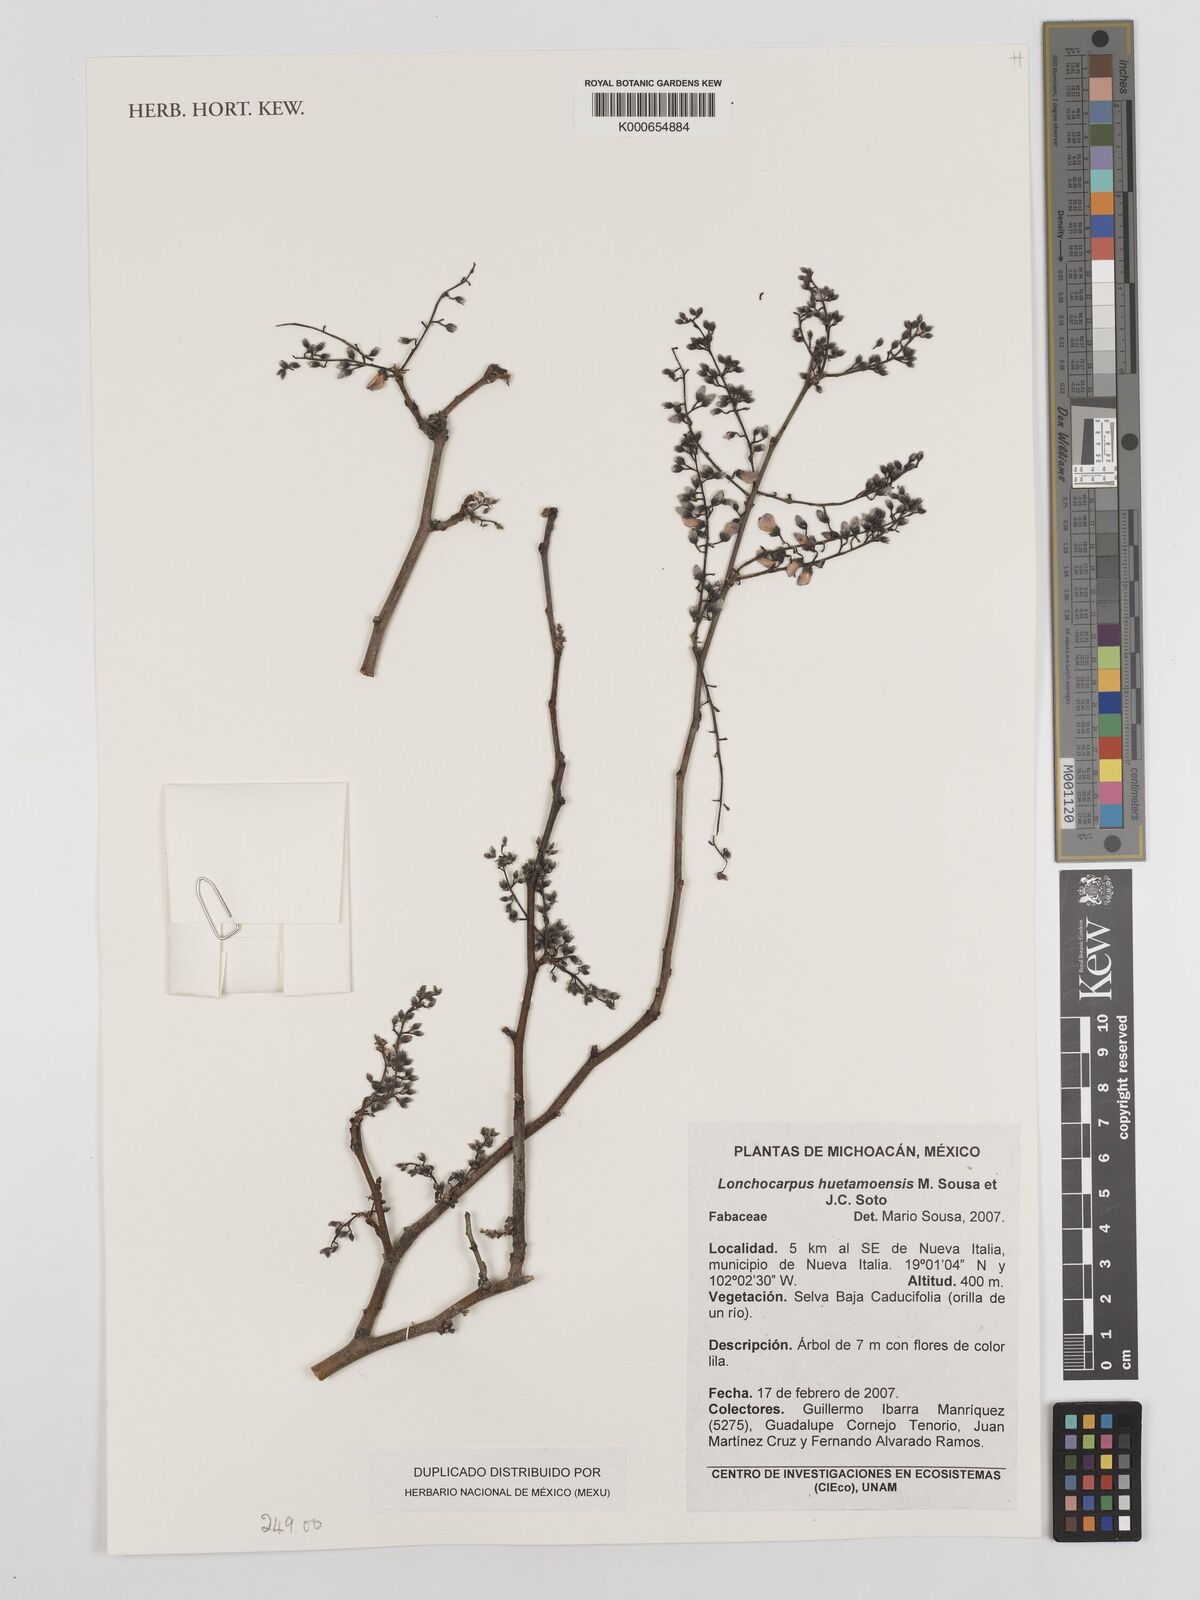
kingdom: Plantae
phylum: Tracheophyta
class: Magnoliopsida
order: Fabales
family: Fabaceae
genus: Lonchocarpus
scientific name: Lonchocarpus huetamoensis
